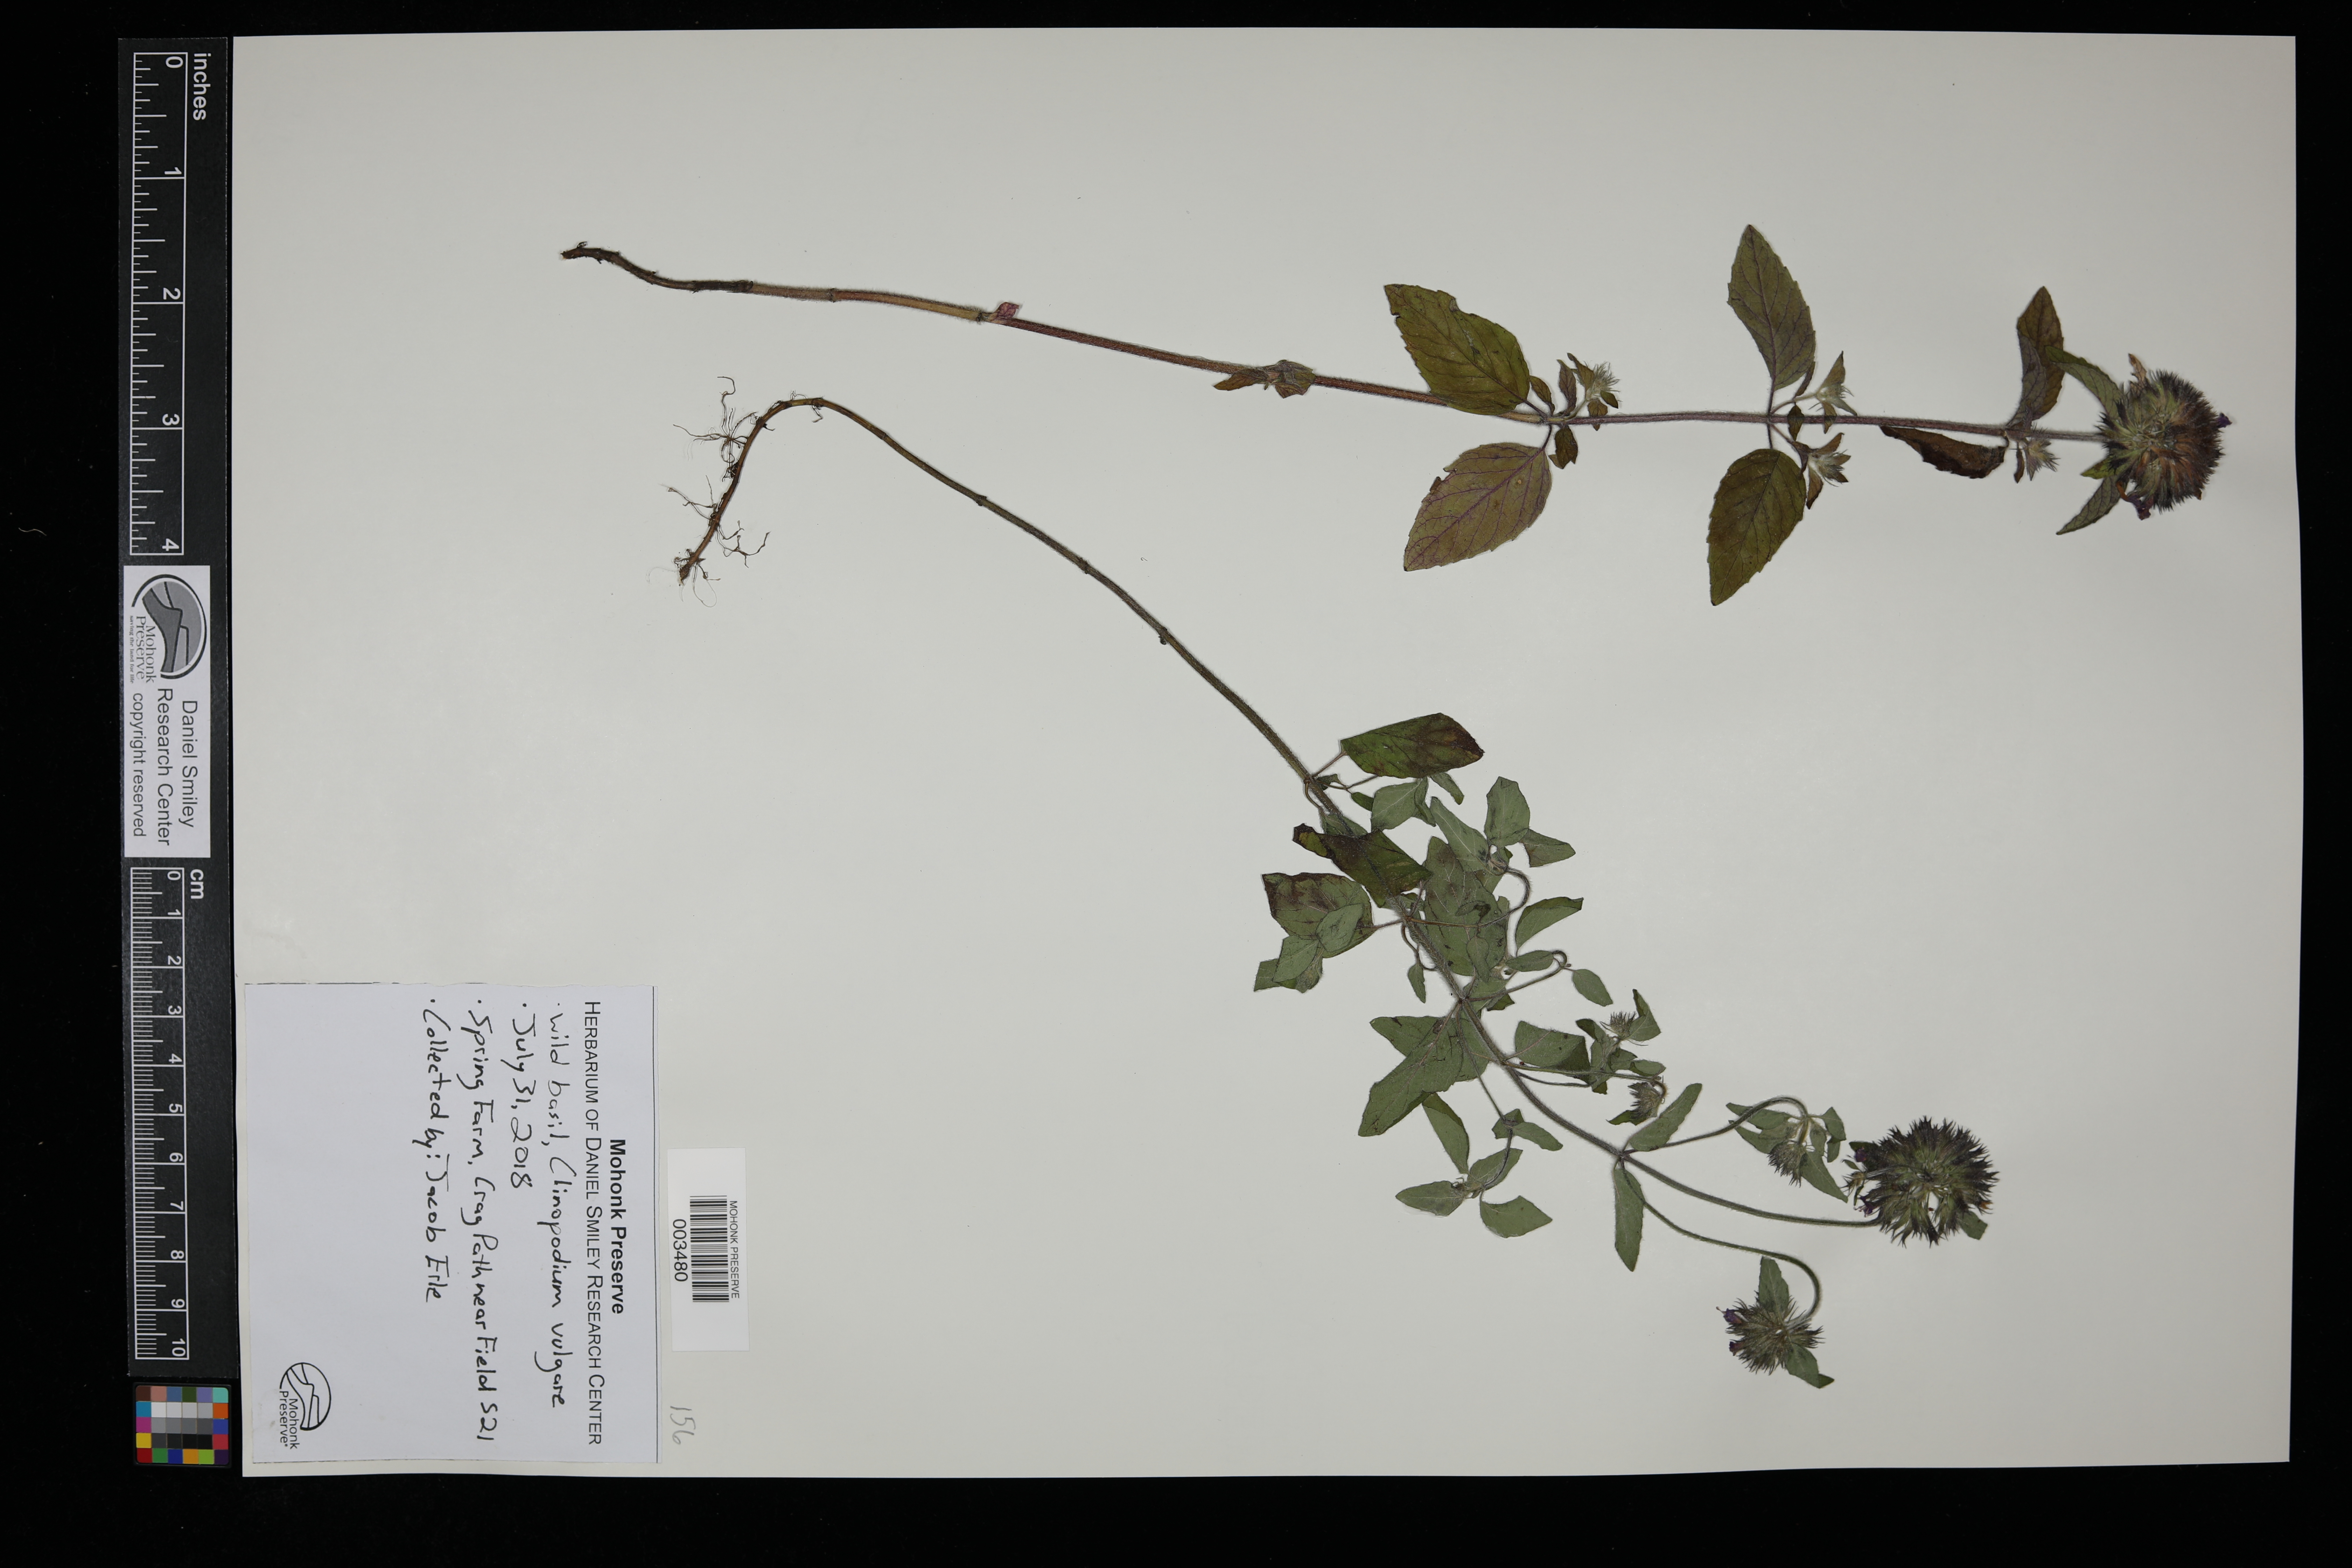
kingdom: Plantae
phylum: Tracheophyta
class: Magnoliopsida
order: Lamiales
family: Lamiaceae
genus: Clinopodium
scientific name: Clinopodium vulgare
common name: Wild basil
